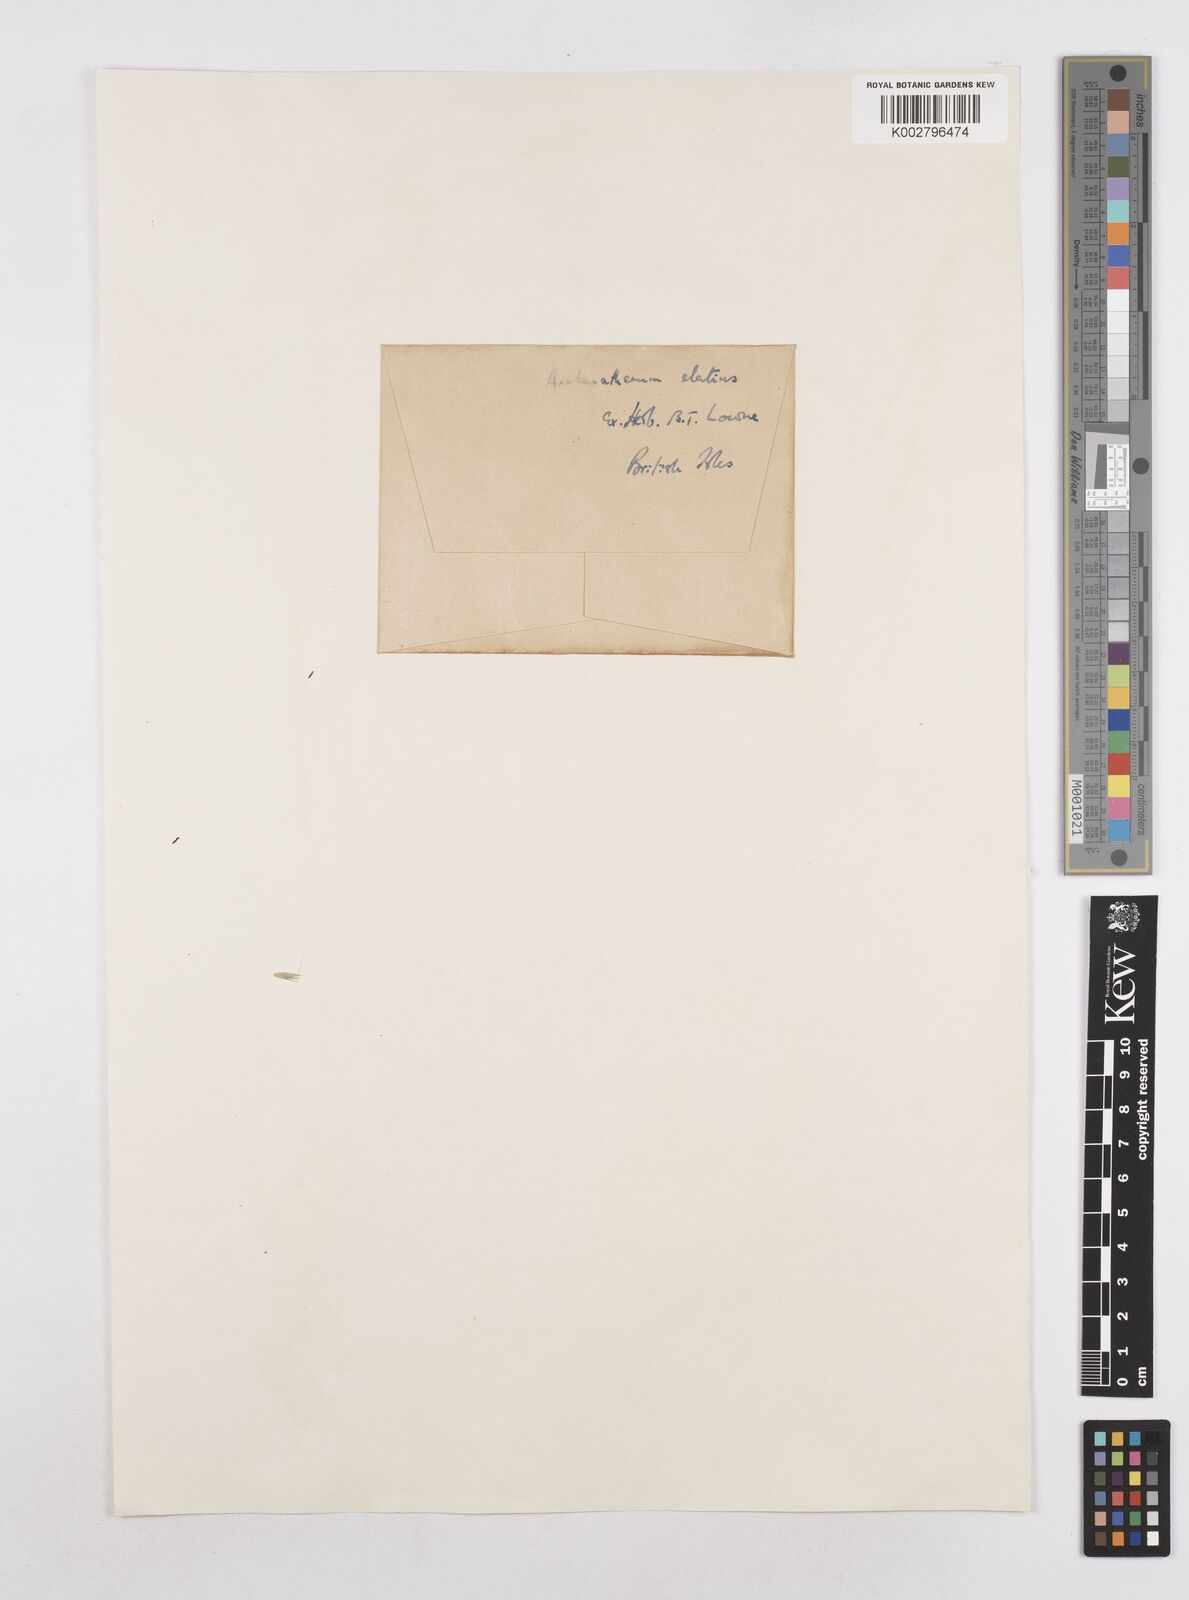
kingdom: Plantae
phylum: Tracheophyta
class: Liliopsida
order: Poales
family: Poaceae
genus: Arrhenatherum
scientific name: Arrhenatherum elatius
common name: Tall oatgrass
